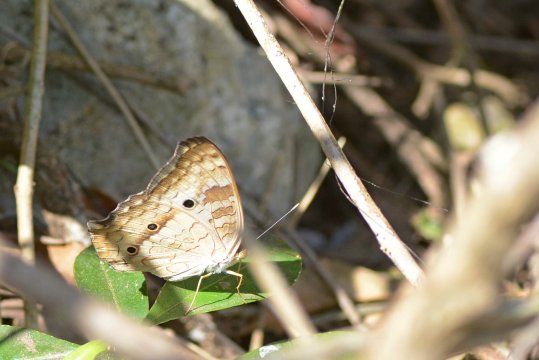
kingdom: Animalia
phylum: Arthropoda
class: Insecta
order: Lepidoptera
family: Nymphalidae
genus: Anartia
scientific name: Anartia jatrophae
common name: White Peacock
